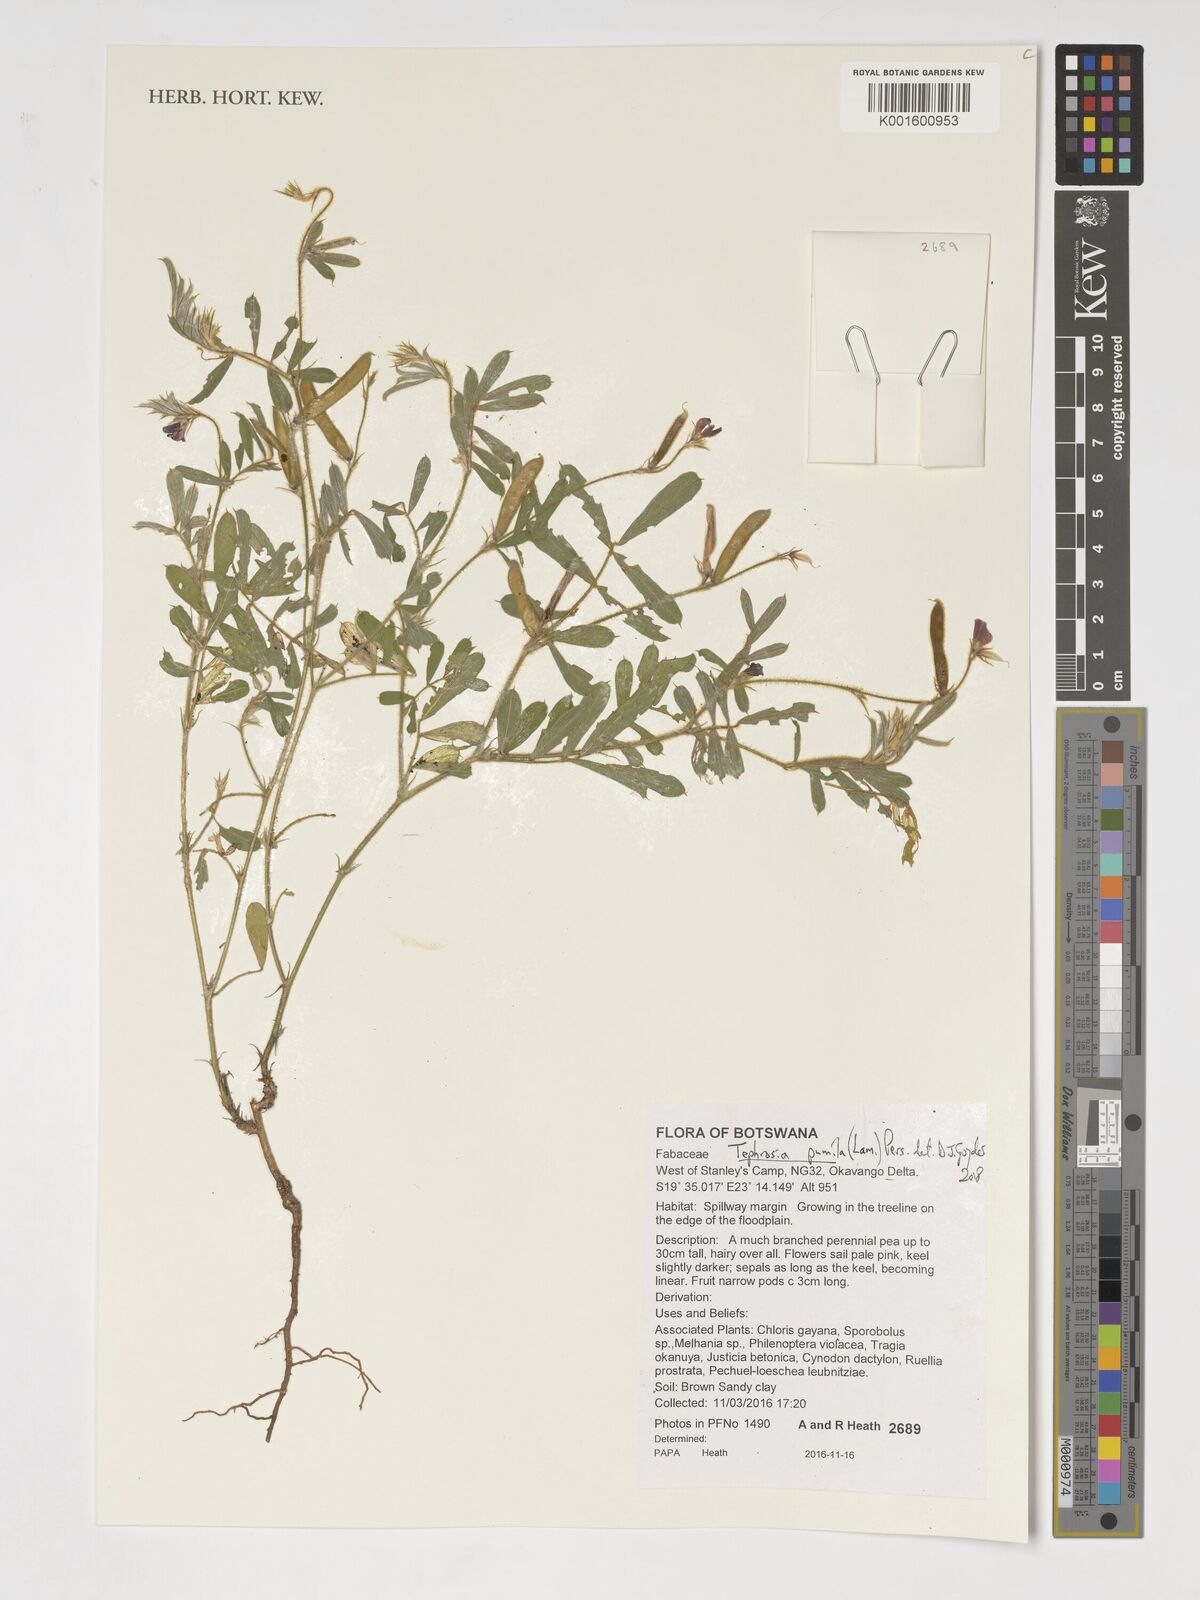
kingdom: Plantae
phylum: Tracheophyta
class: Magnoliopsida
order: Fabales
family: Fabaceae
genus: Tephrosia
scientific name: Tephrosia pumila
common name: Indigo sauvage
